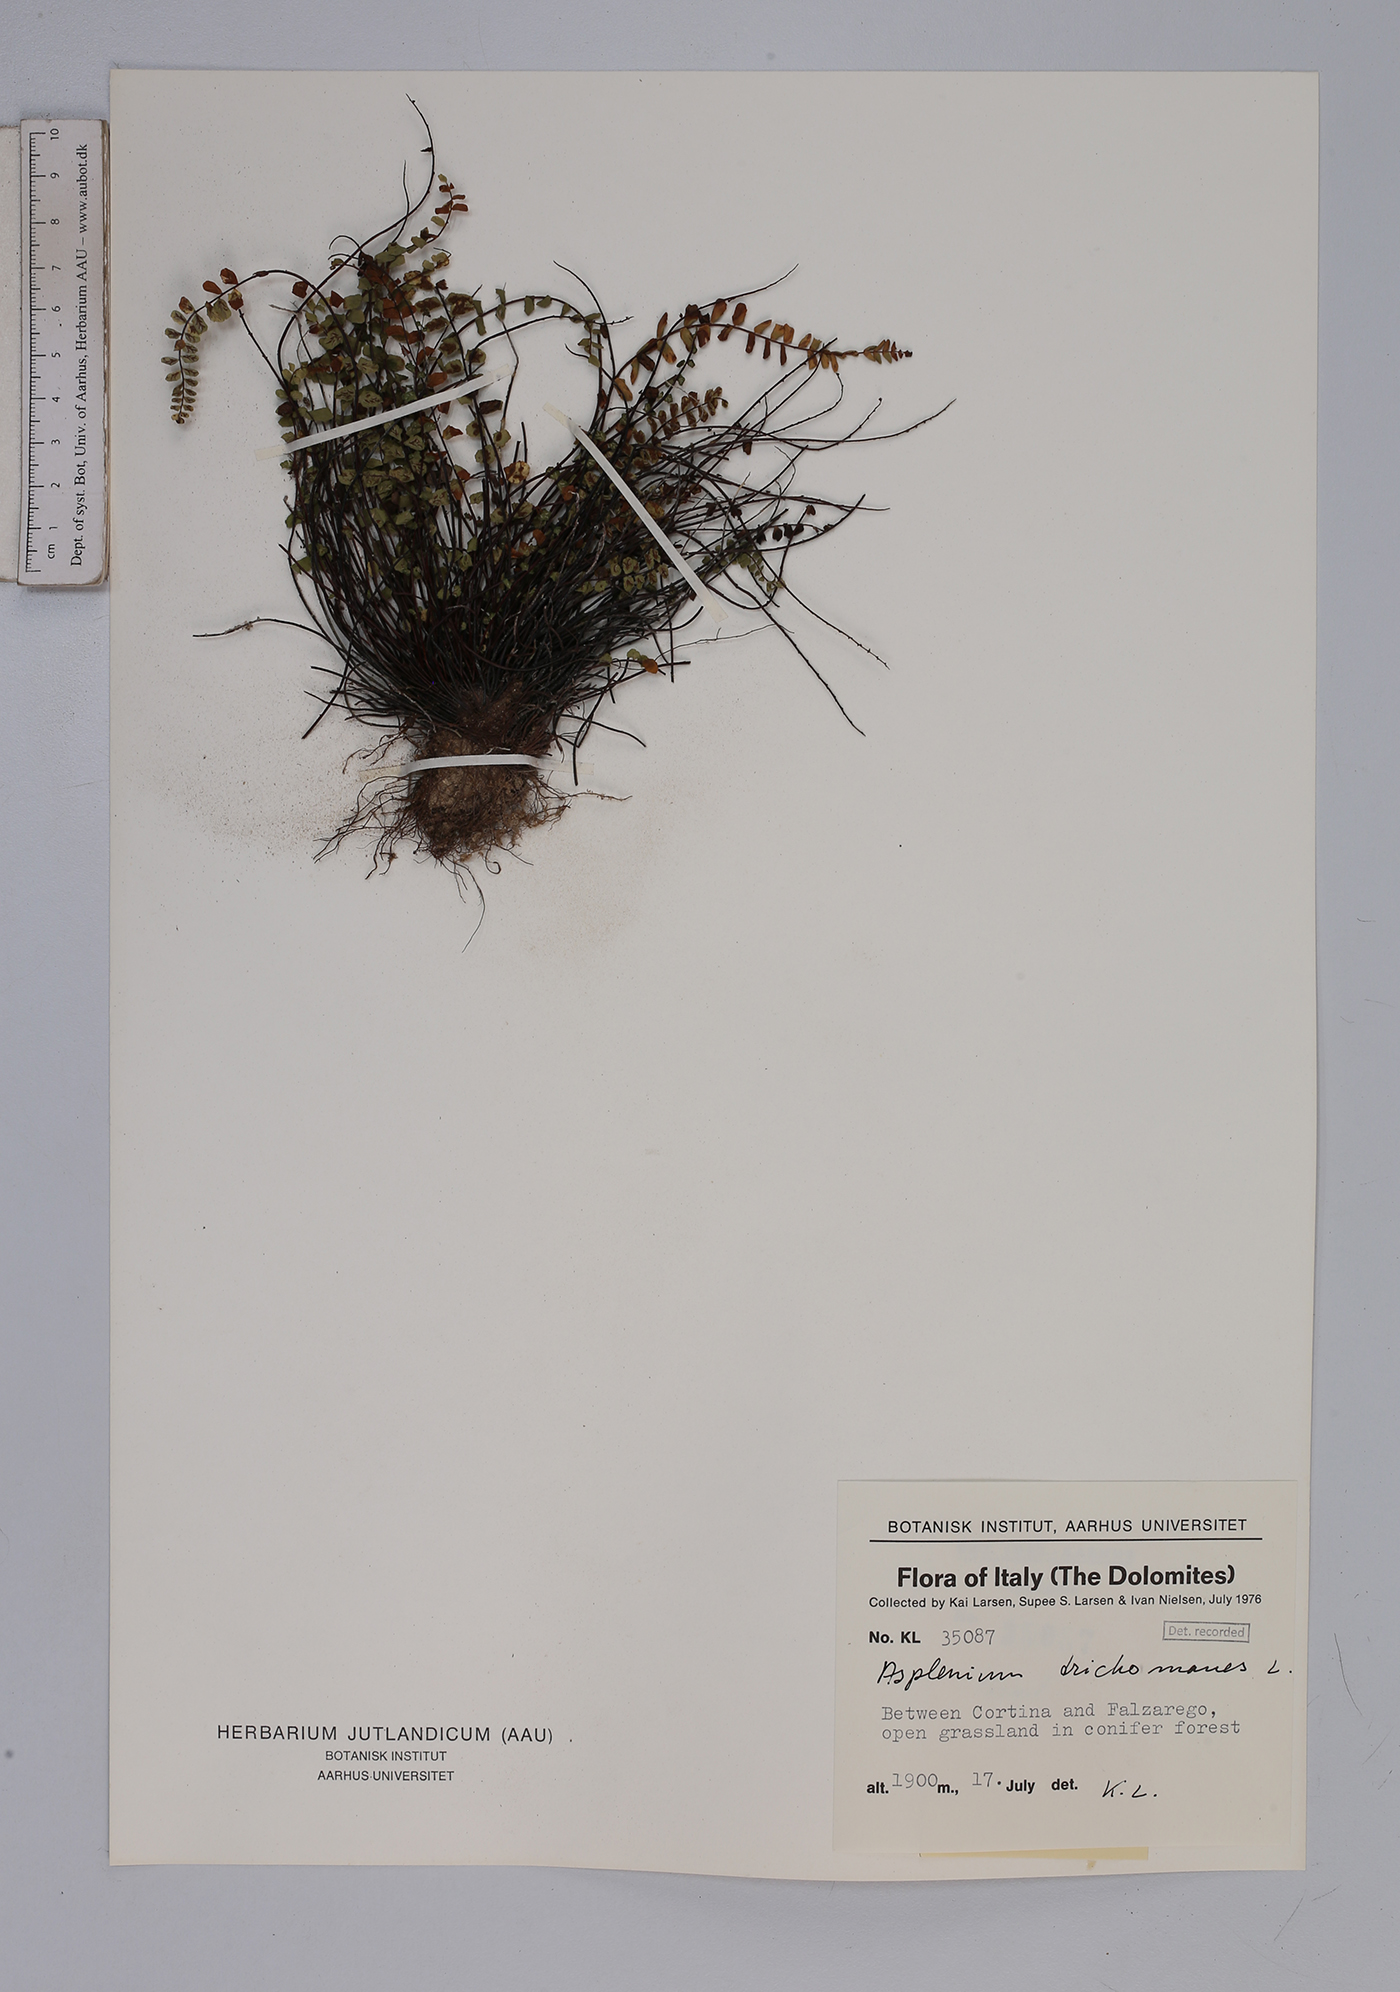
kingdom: Plantae
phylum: Tracheophyta
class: Polypodiopsida
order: Polypodiales
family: Aspleniaceae
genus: Asplenium
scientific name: Asplenium trichomanes
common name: Maidenhair spleenwort
